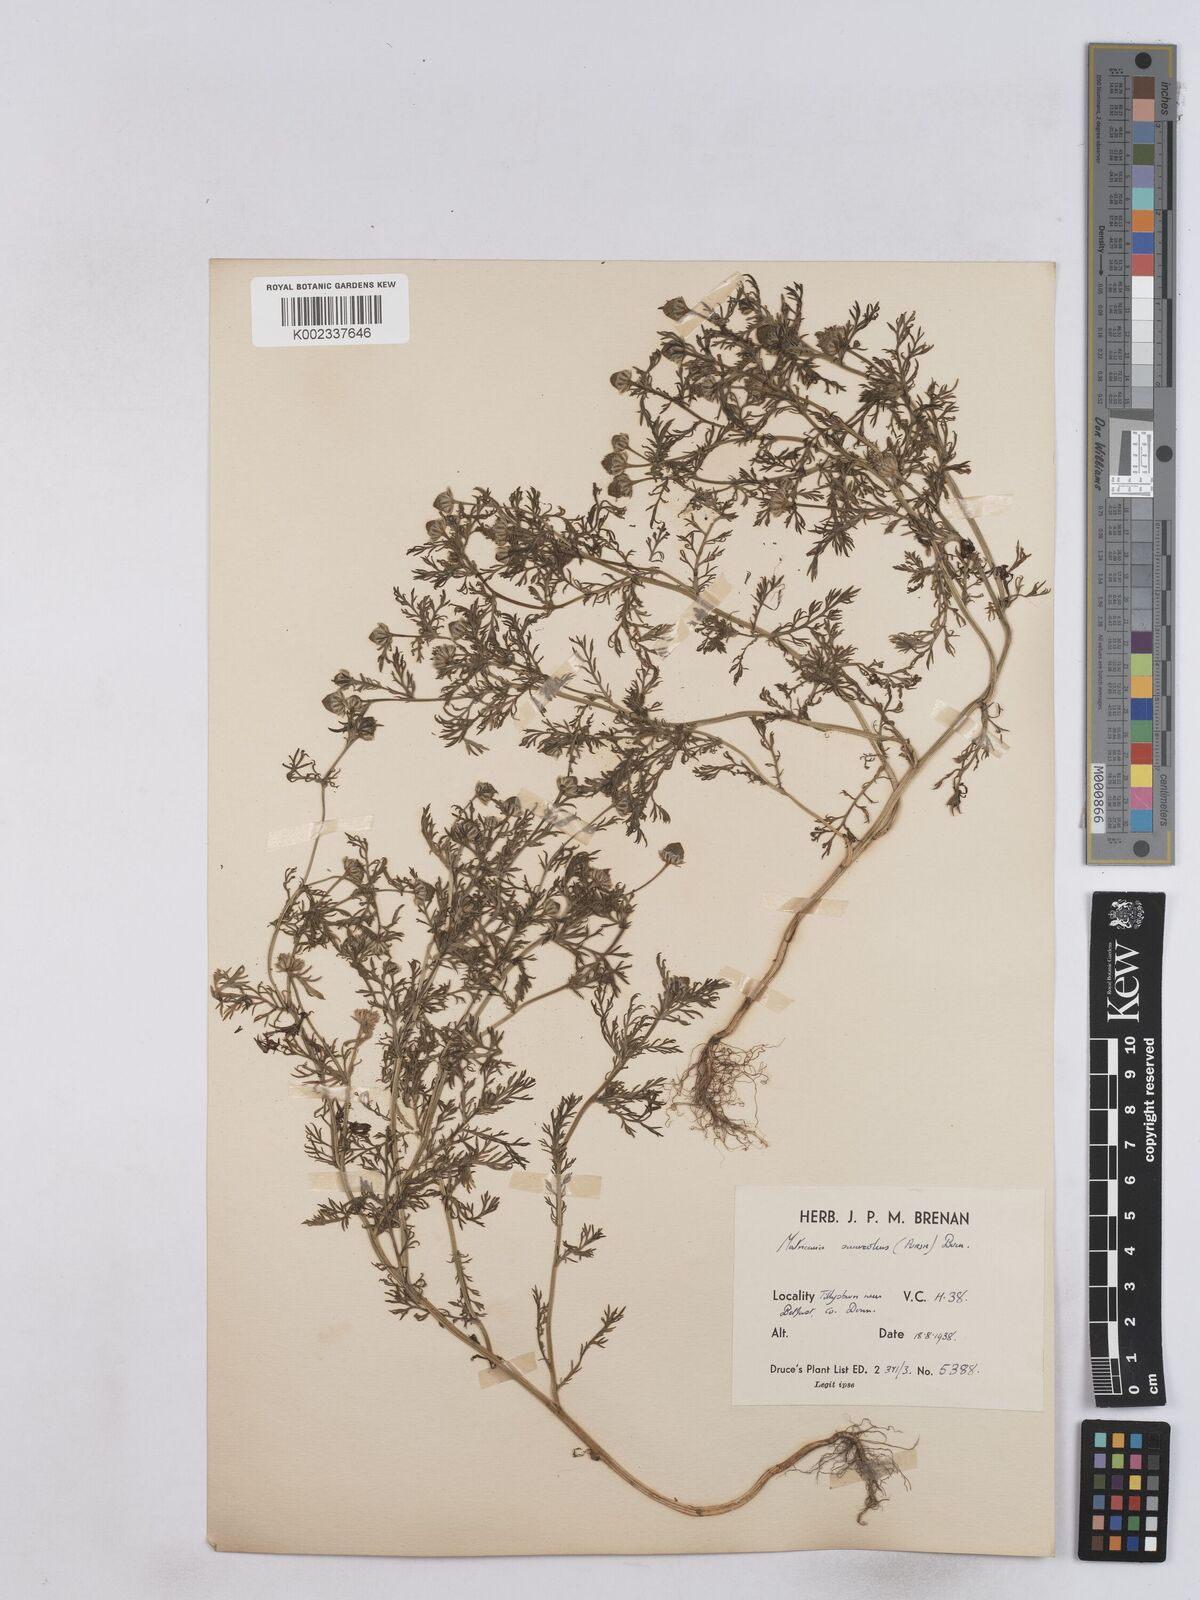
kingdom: Plantae
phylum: Tracheophyta
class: Magnoliopsida
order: Asterales
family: Asteraceae
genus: Matricaria
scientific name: Matricaria discoidea
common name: Disc mayweed
